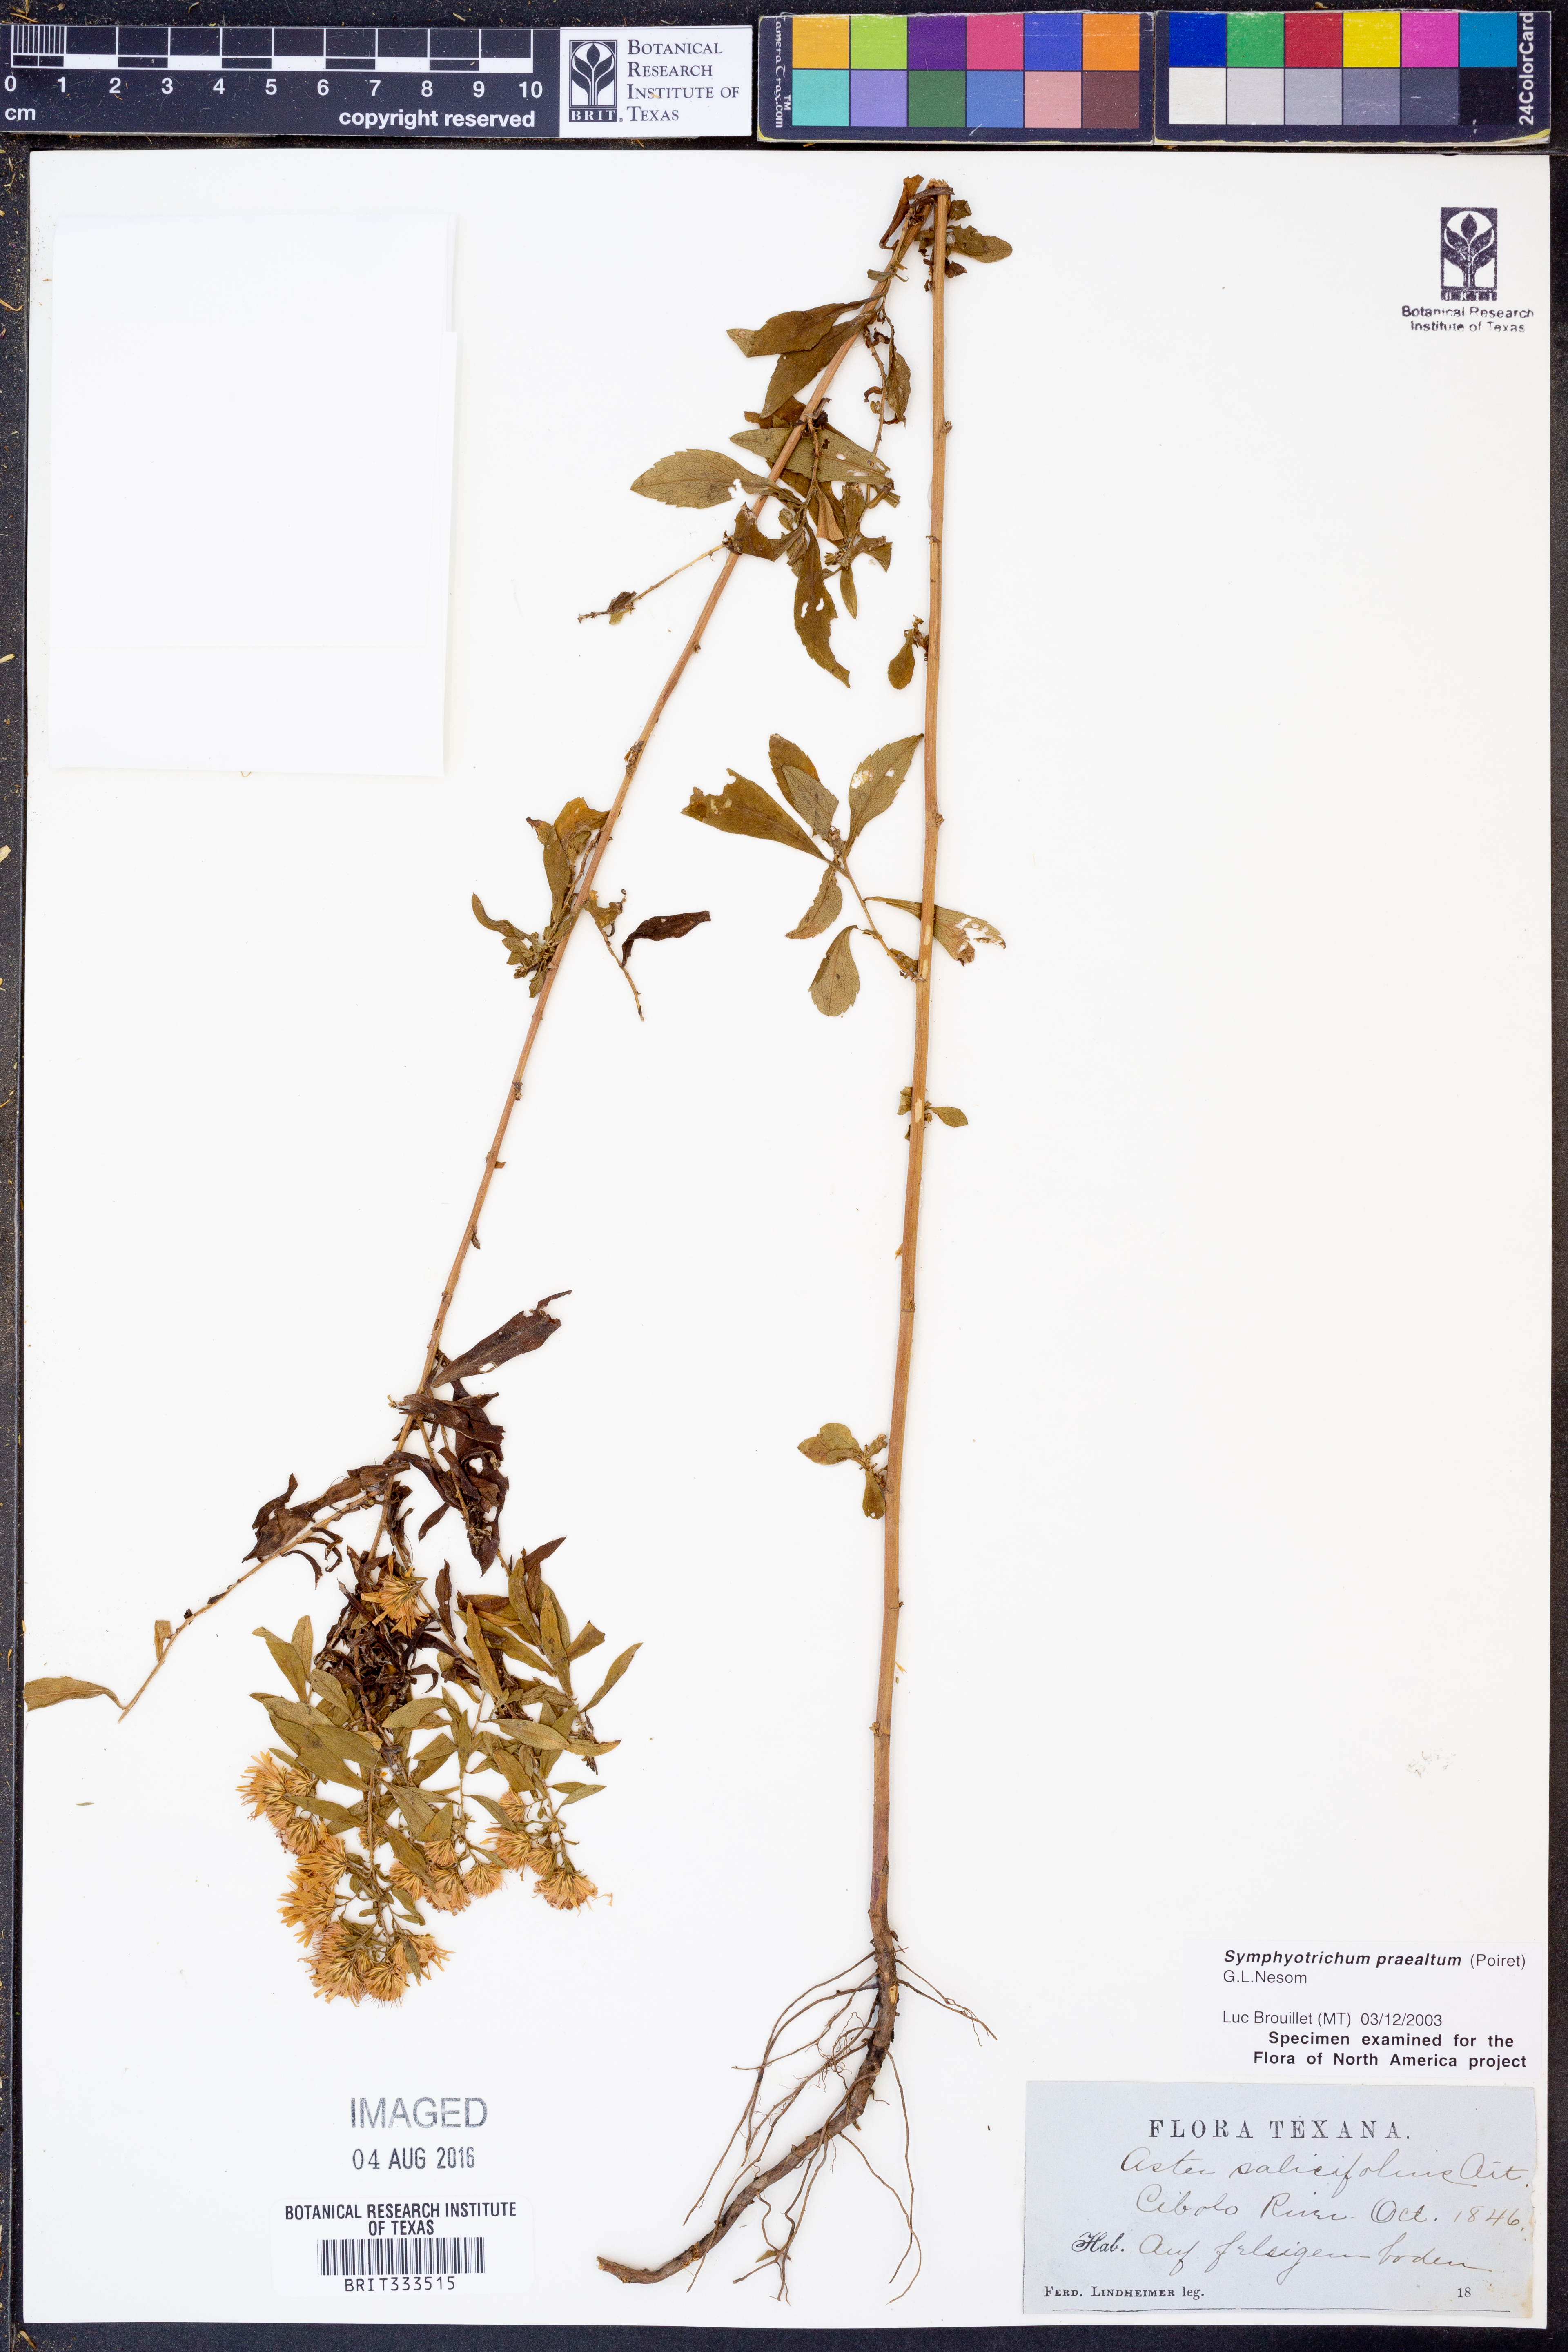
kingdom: Plantae
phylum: Tracheophyta
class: Magnoliopsida
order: Asterales
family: Asteraceae
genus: Symphyotrichum
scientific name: Symphyotrichum praealtum
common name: Willow aster
